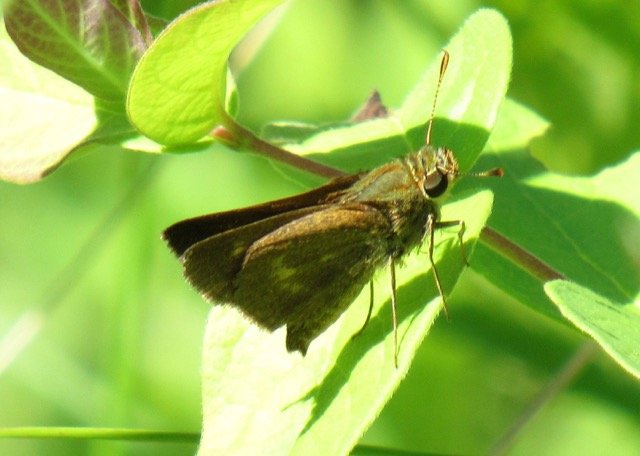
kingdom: Animalia
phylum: Arthropoda
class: Insecta
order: Lepidoptera
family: Hesperiidae
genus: Polites
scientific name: Polites egeremet
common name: Northern Broken-Dash
